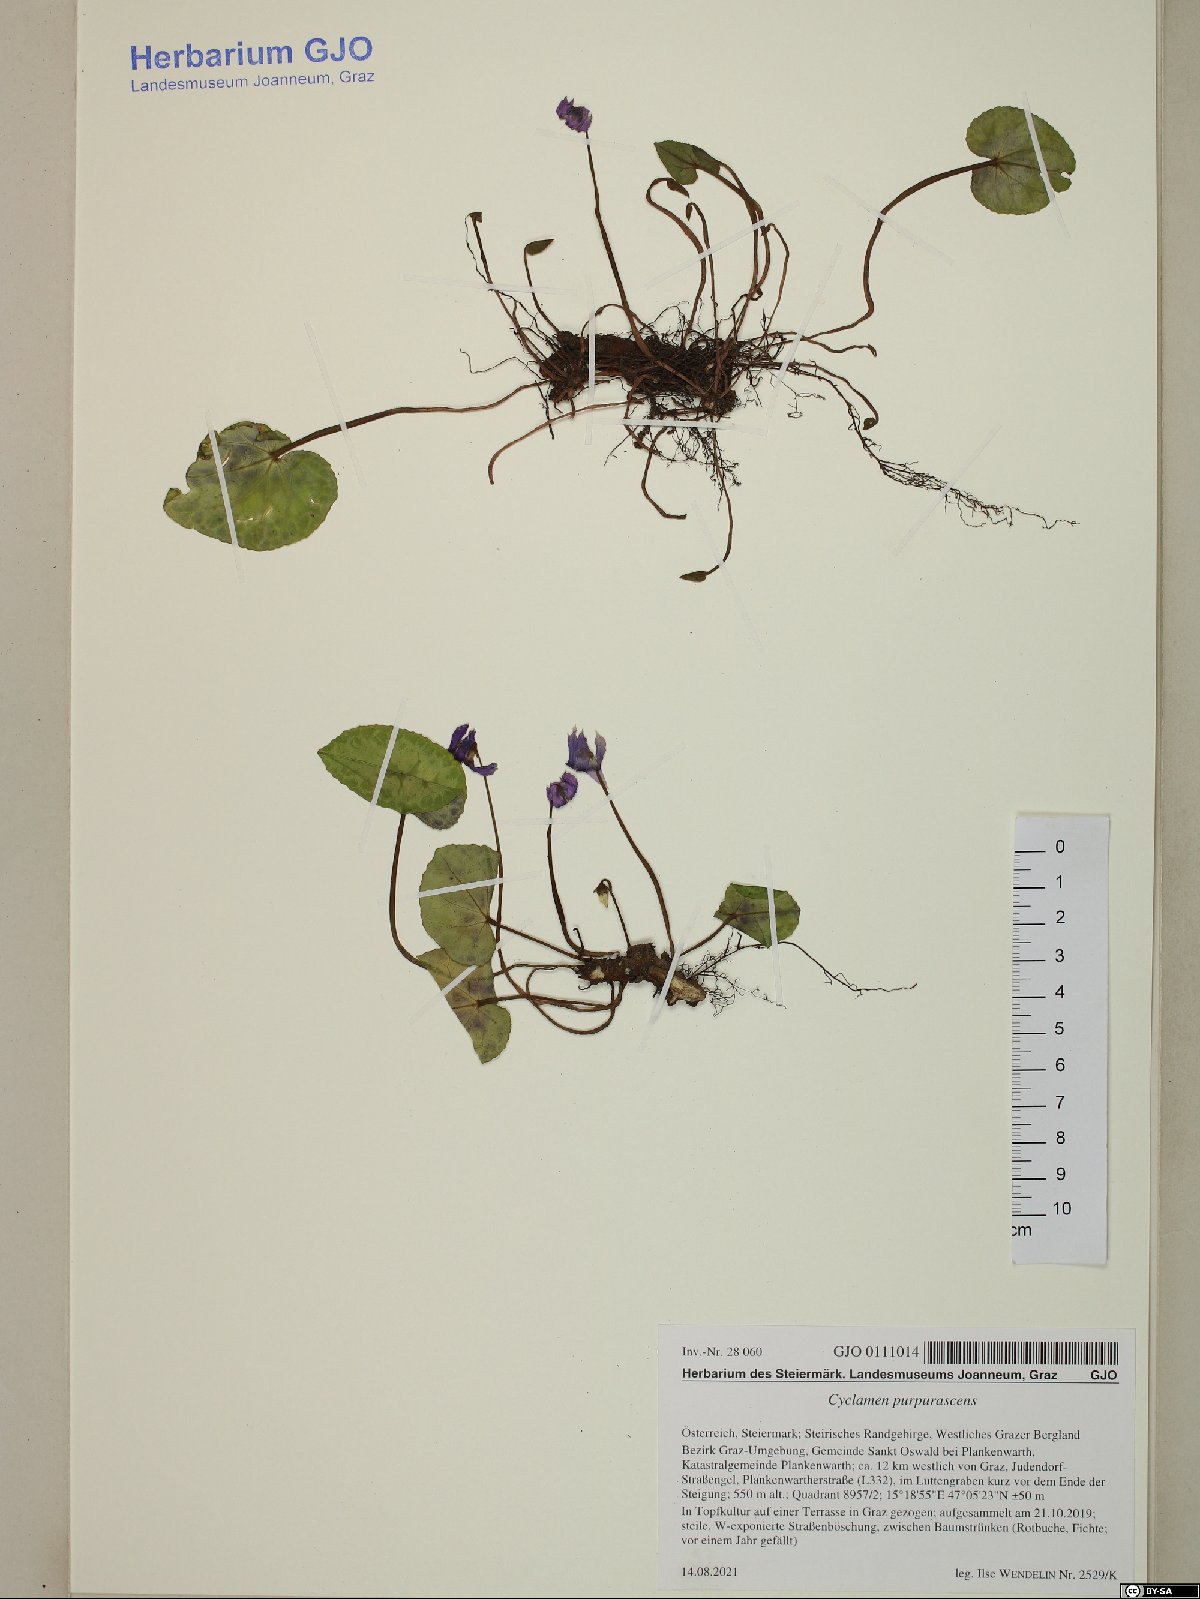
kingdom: Plantae
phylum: Tracheophyta
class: Magnoliopsida
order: Ericales
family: Primulaceae
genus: Cyclamen
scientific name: Cyclamen purpurascens
